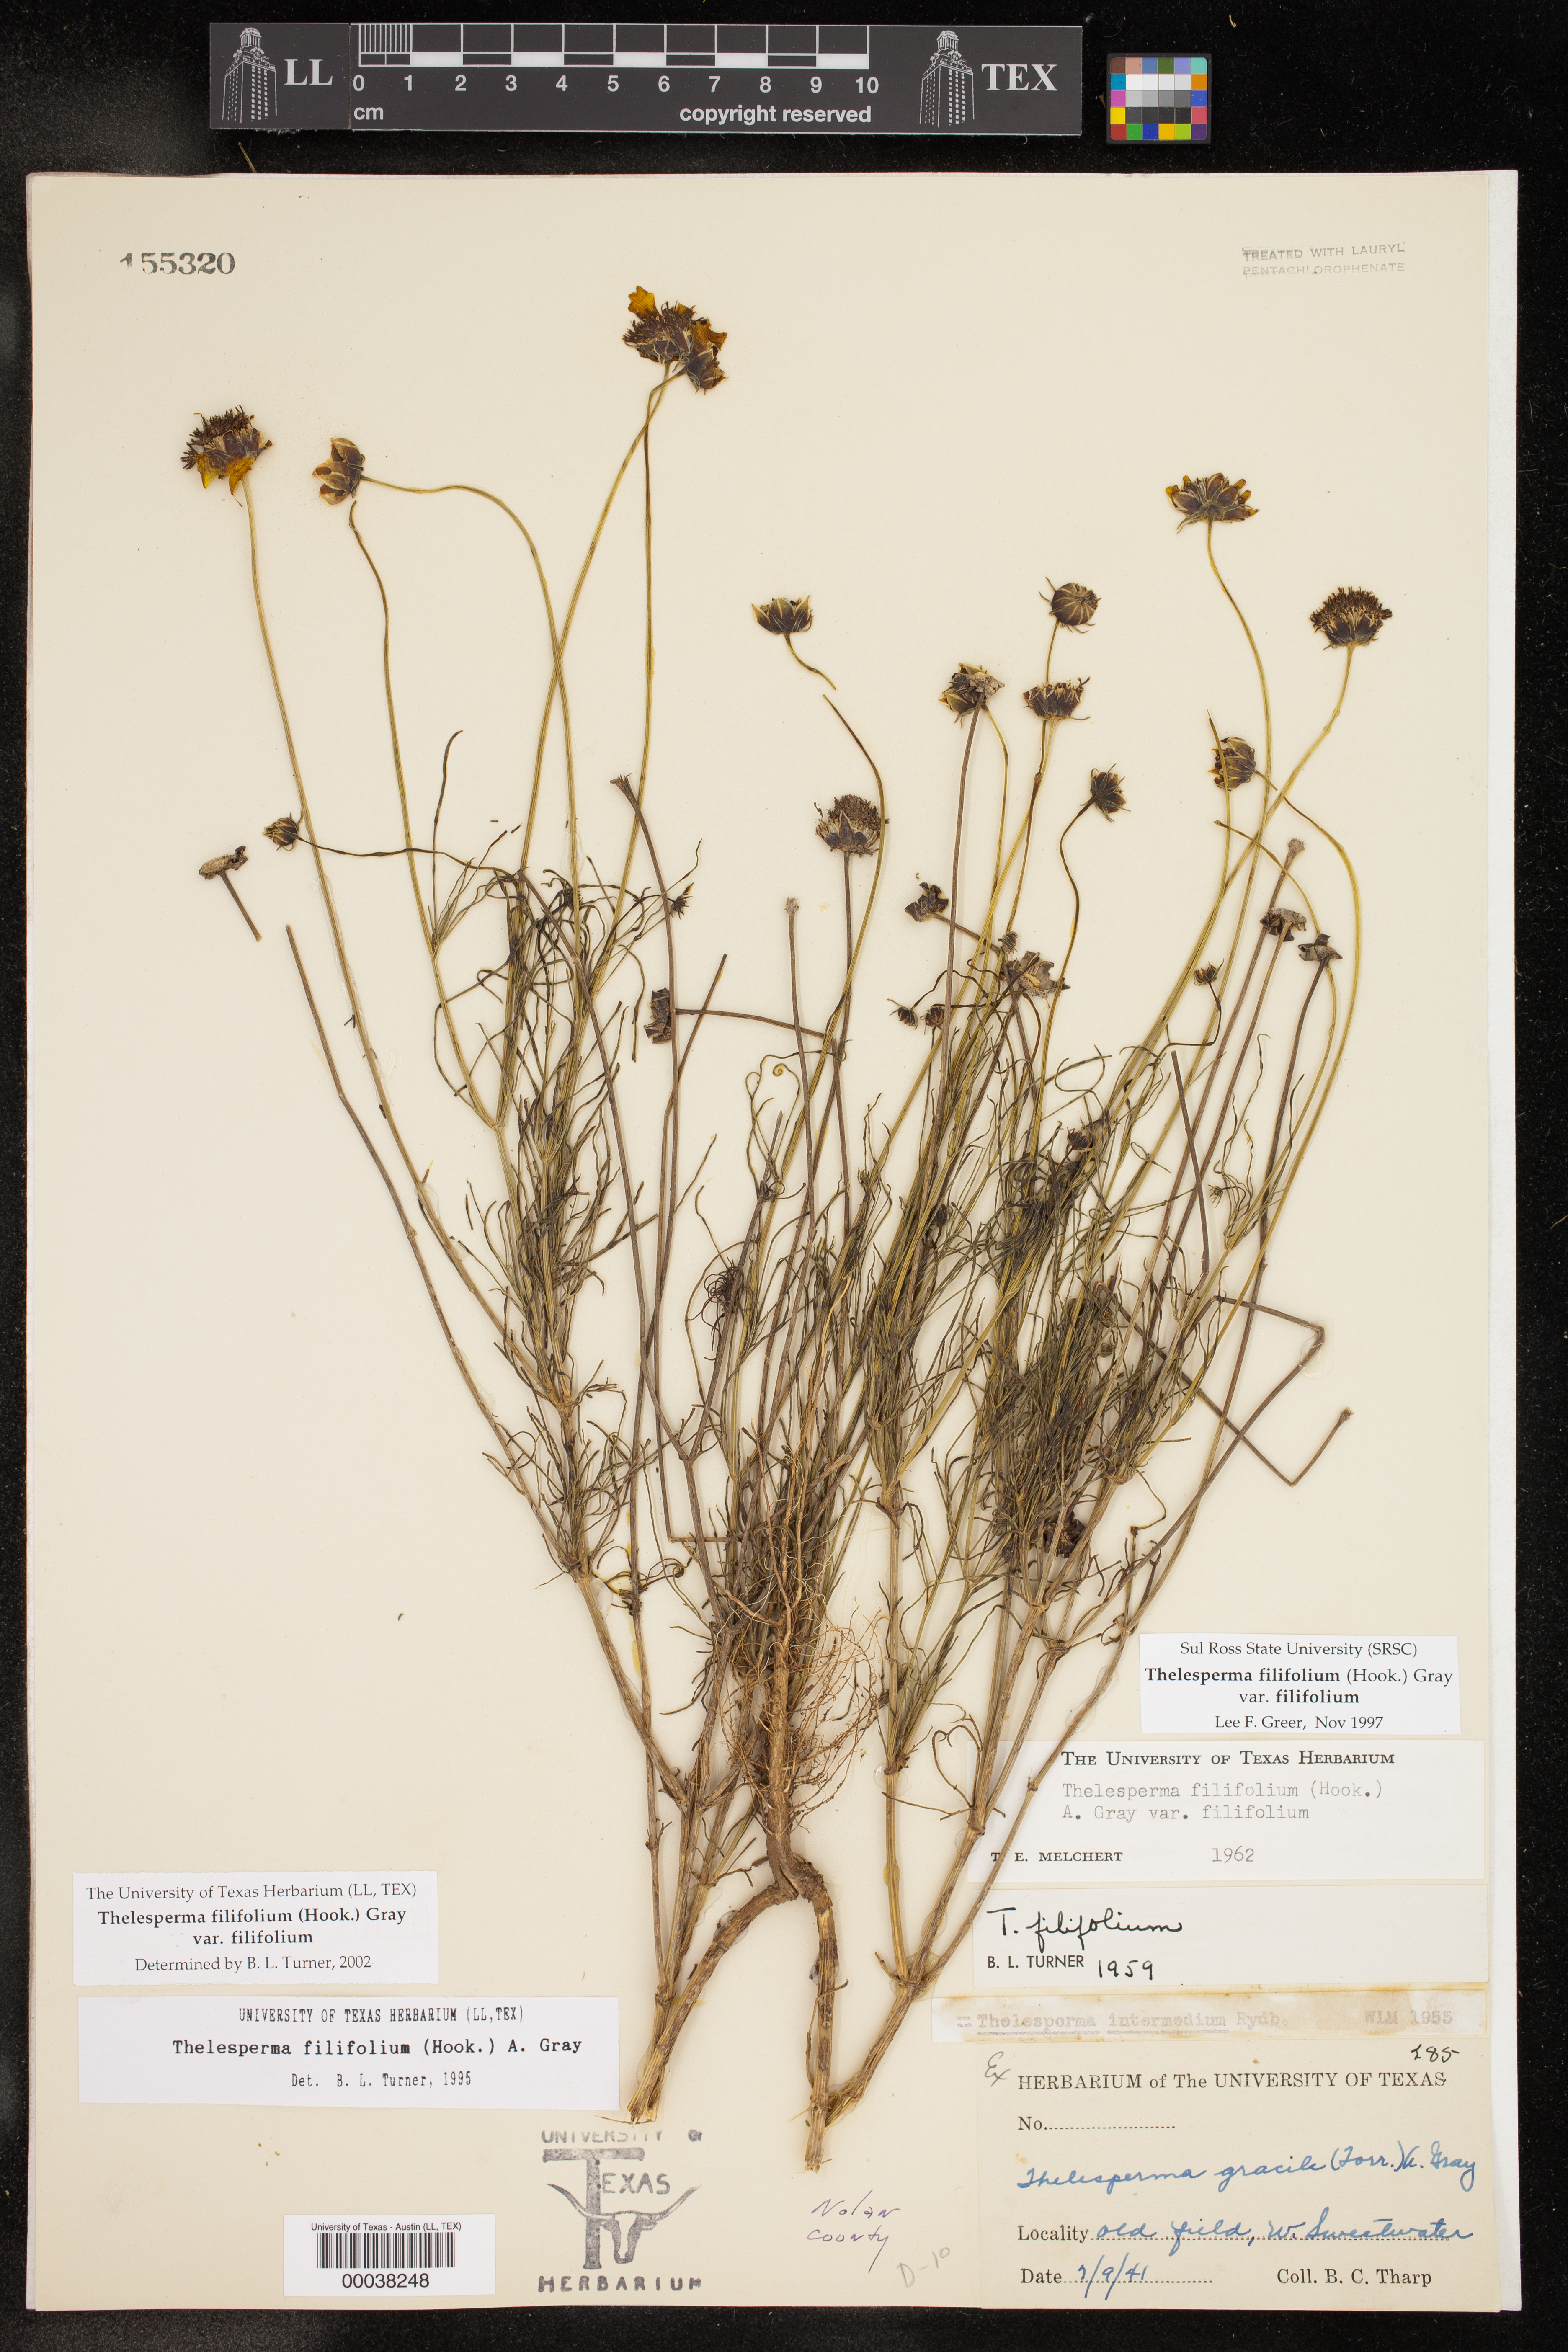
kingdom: Plantae
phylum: Tracheophyta
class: Magnoliopsida
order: Asterales
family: Asteraceae
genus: Thelesperma
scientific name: Thelesperma filifolium
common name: Stiff greenthread
